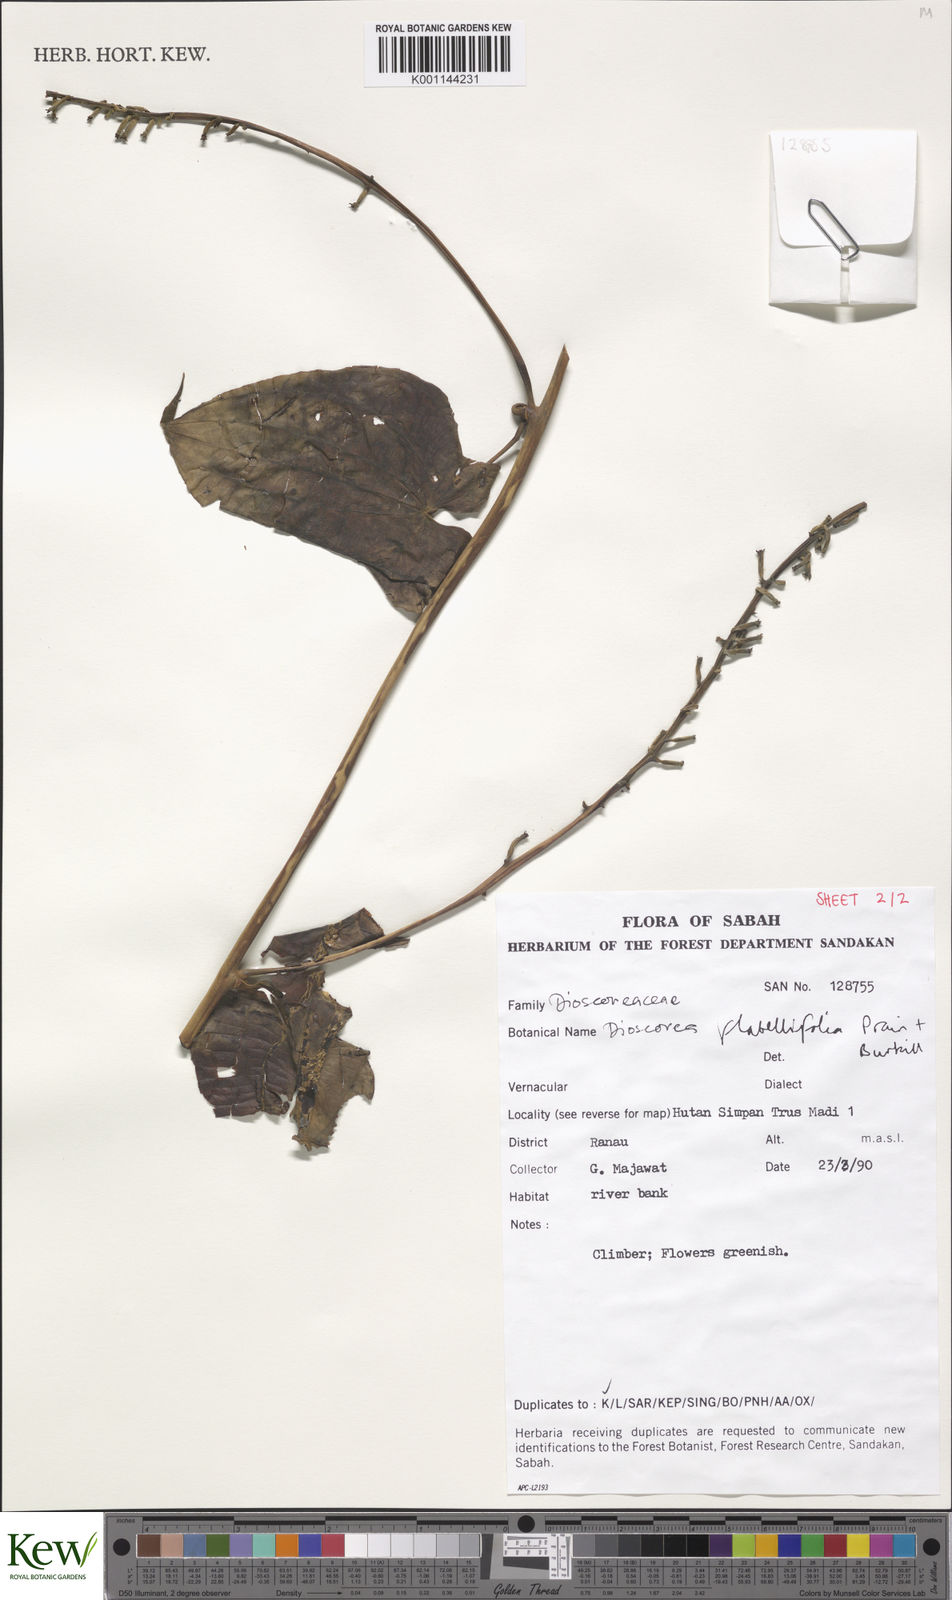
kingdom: Plantae
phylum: Tracheophyta
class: Liliopsida
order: Dioscoreales
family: Dioscoreaceae
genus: Dioscorea
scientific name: Dioscorea flabellifolia
